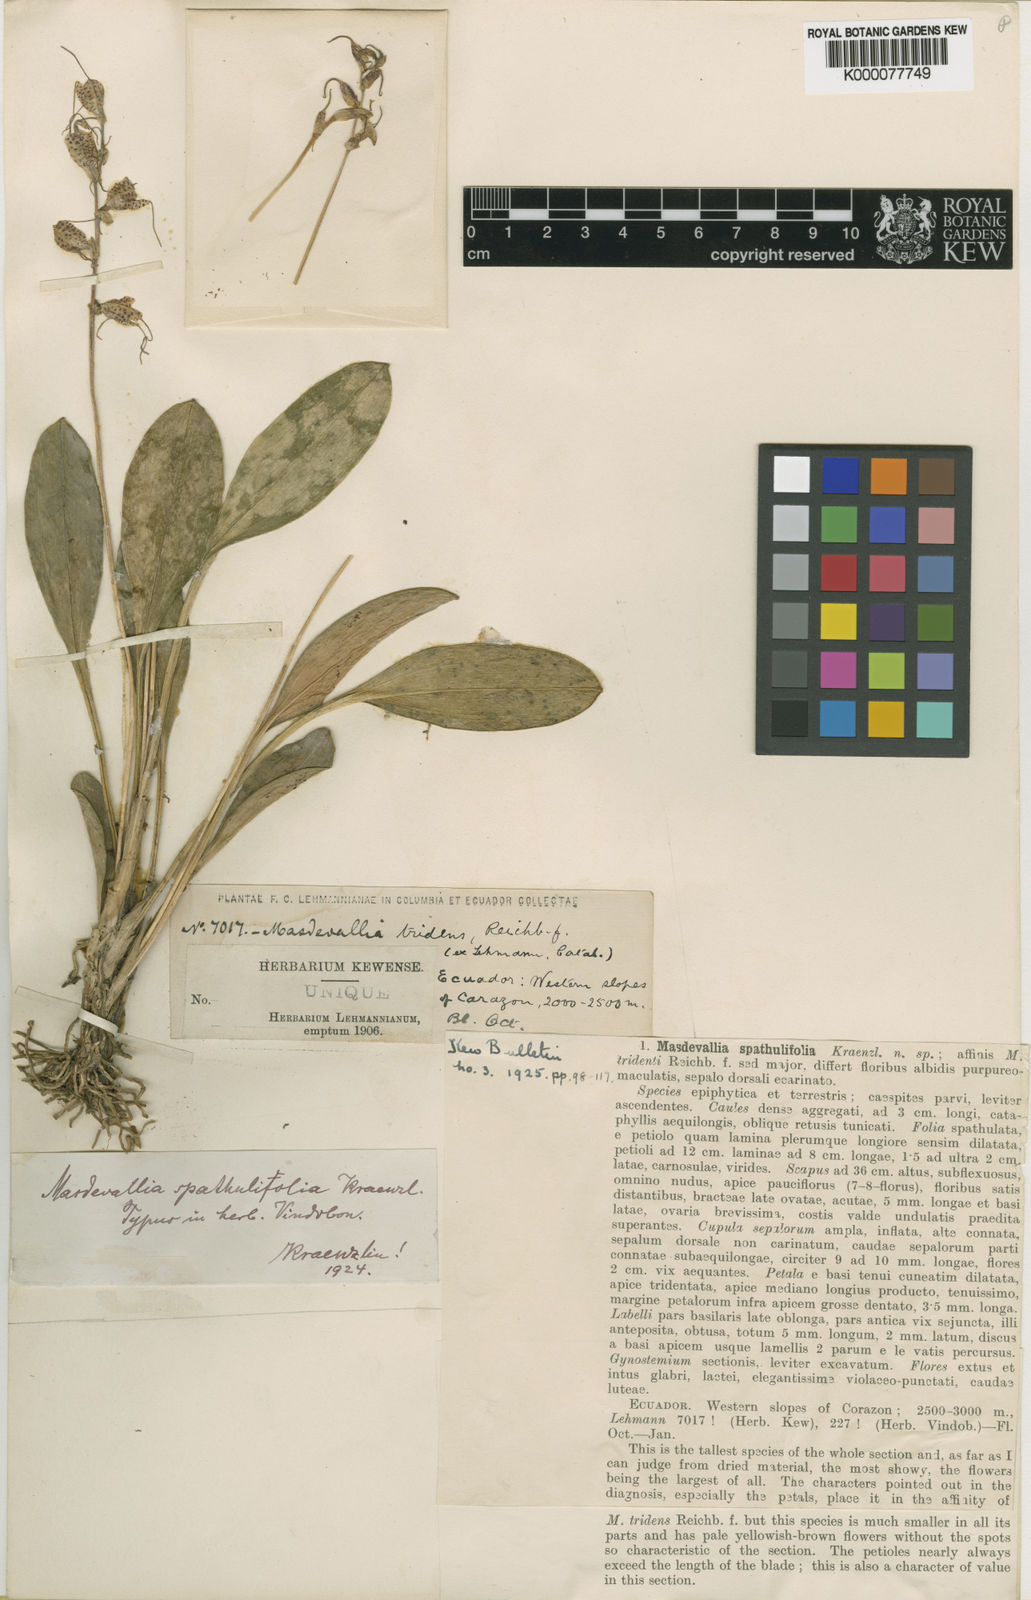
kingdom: Plantae
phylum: Tracheophyta
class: Liliopsida
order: Asparagales
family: Orchidaceae
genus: Masdevallia
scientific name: Masdevallia polysticta
